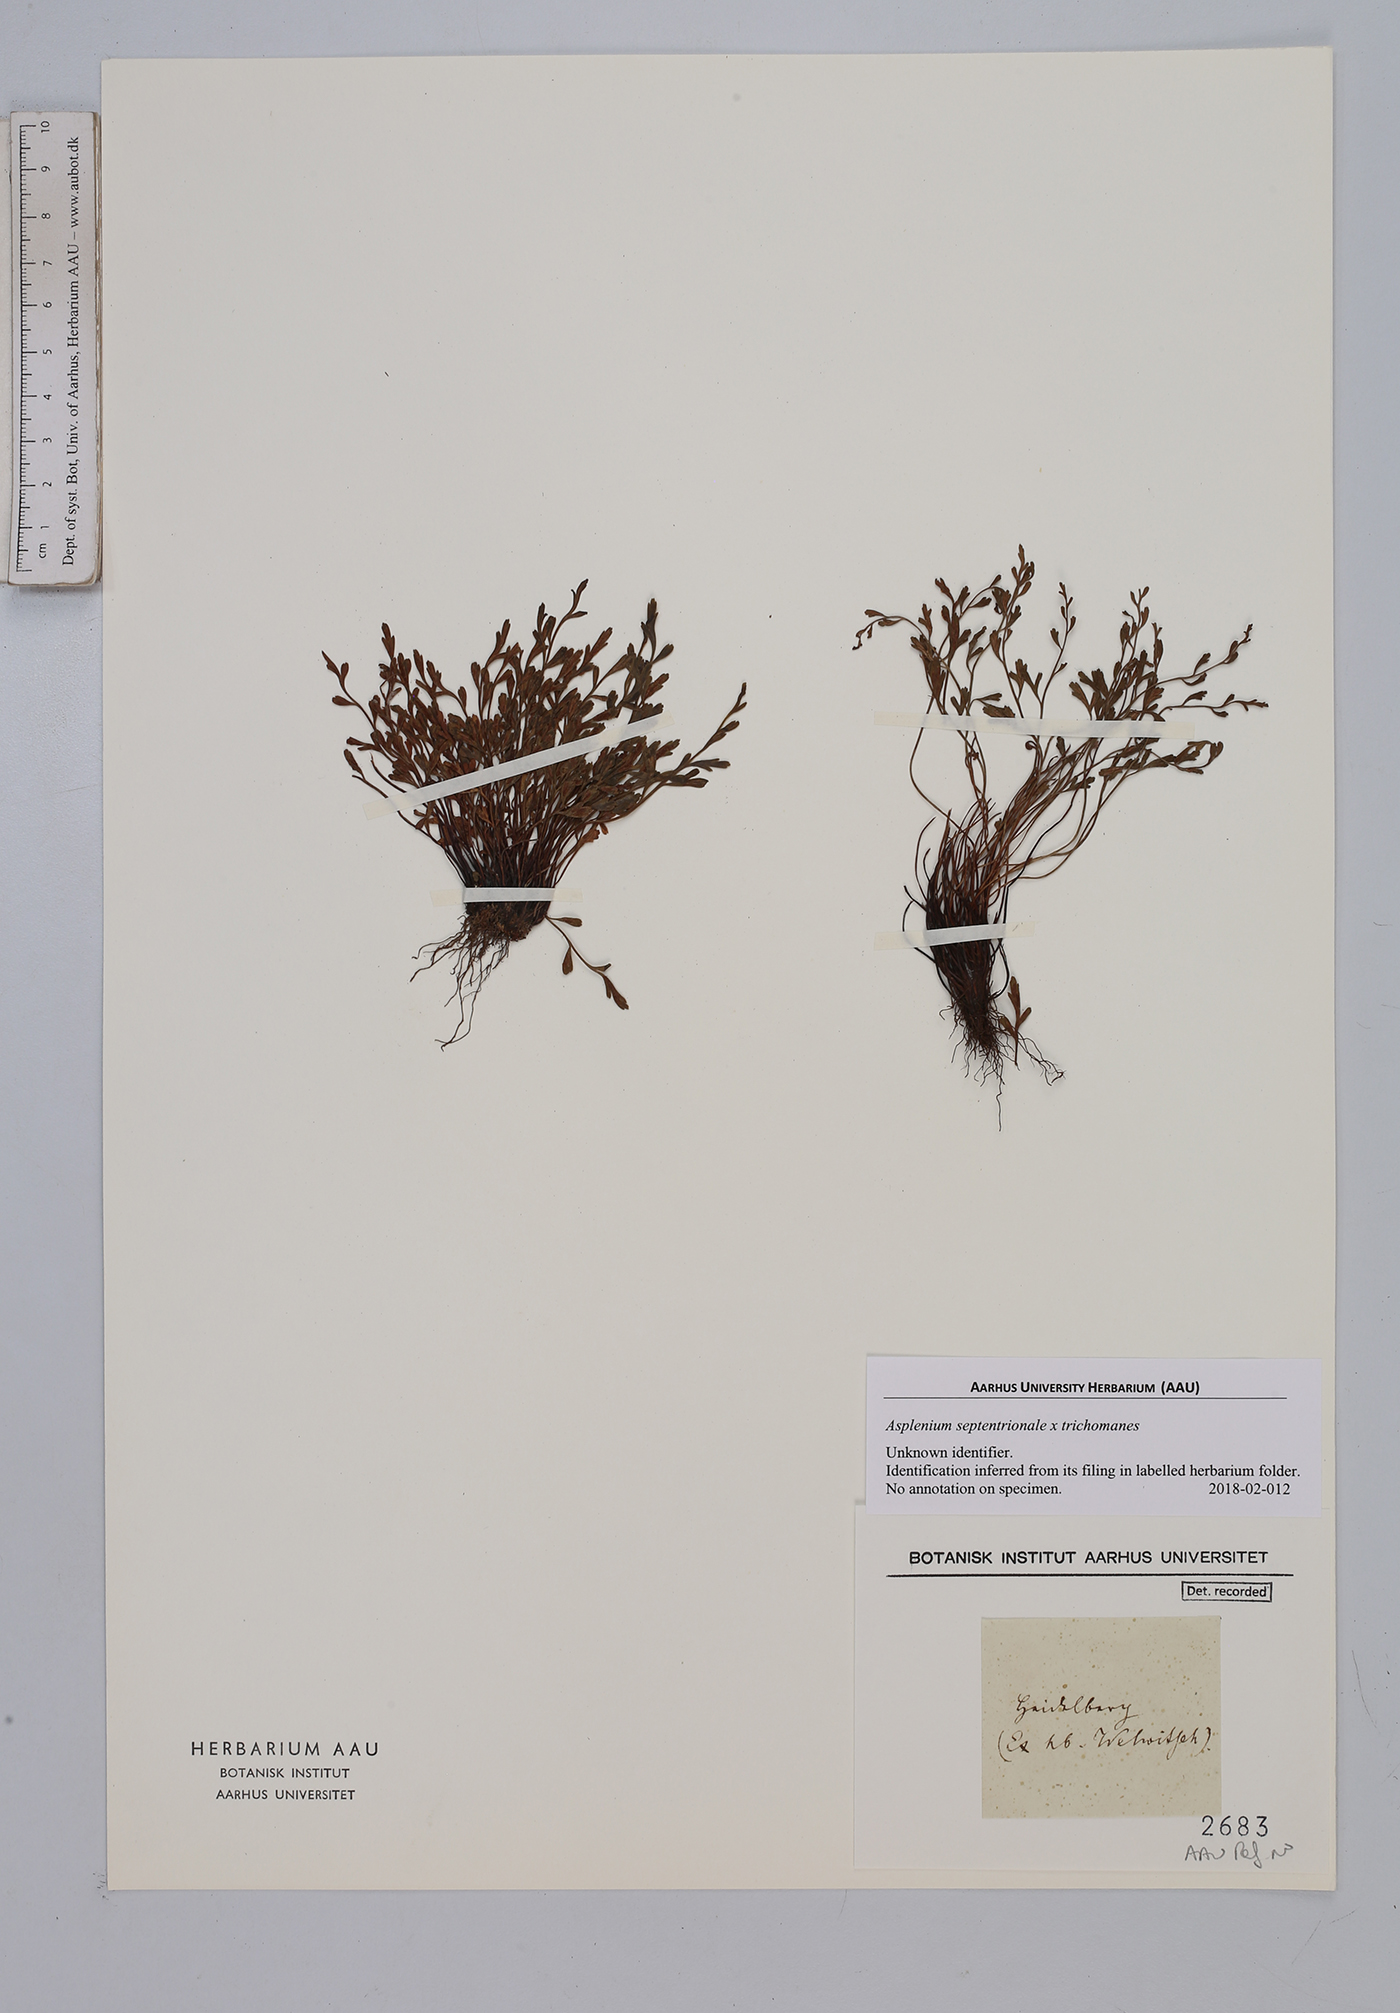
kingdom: Plantae
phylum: Tracheophyta
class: Polypodiopsida
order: Polypodiales
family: Aspleniaceae
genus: Asplenium
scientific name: Asplenium
